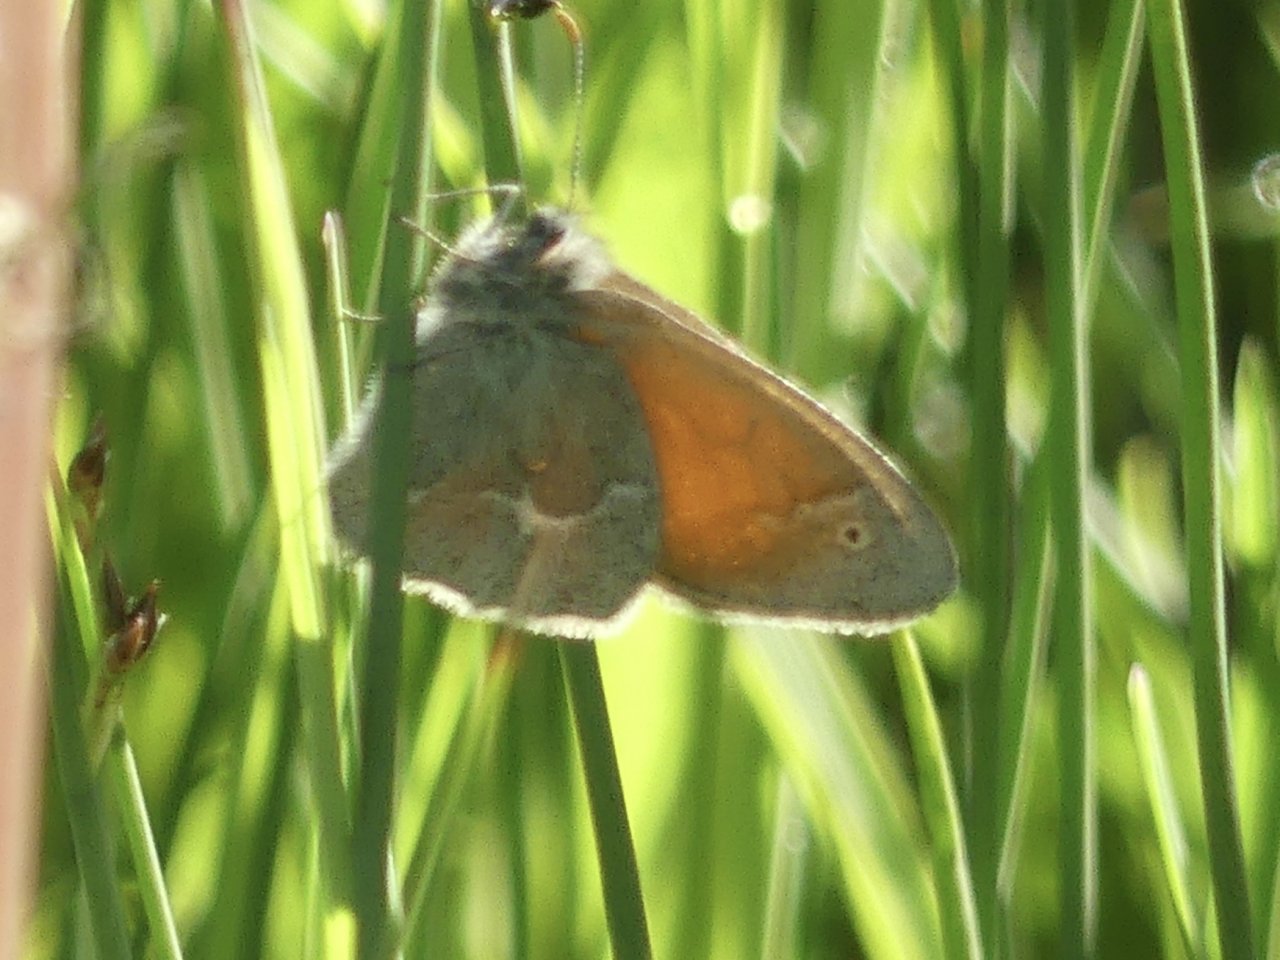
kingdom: Animalia
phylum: Arthropoda
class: Insecta
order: Lepidoptera
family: Nymphalidae
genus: Coenonympha
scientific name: Coenonympha tullia
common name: Large Heath
